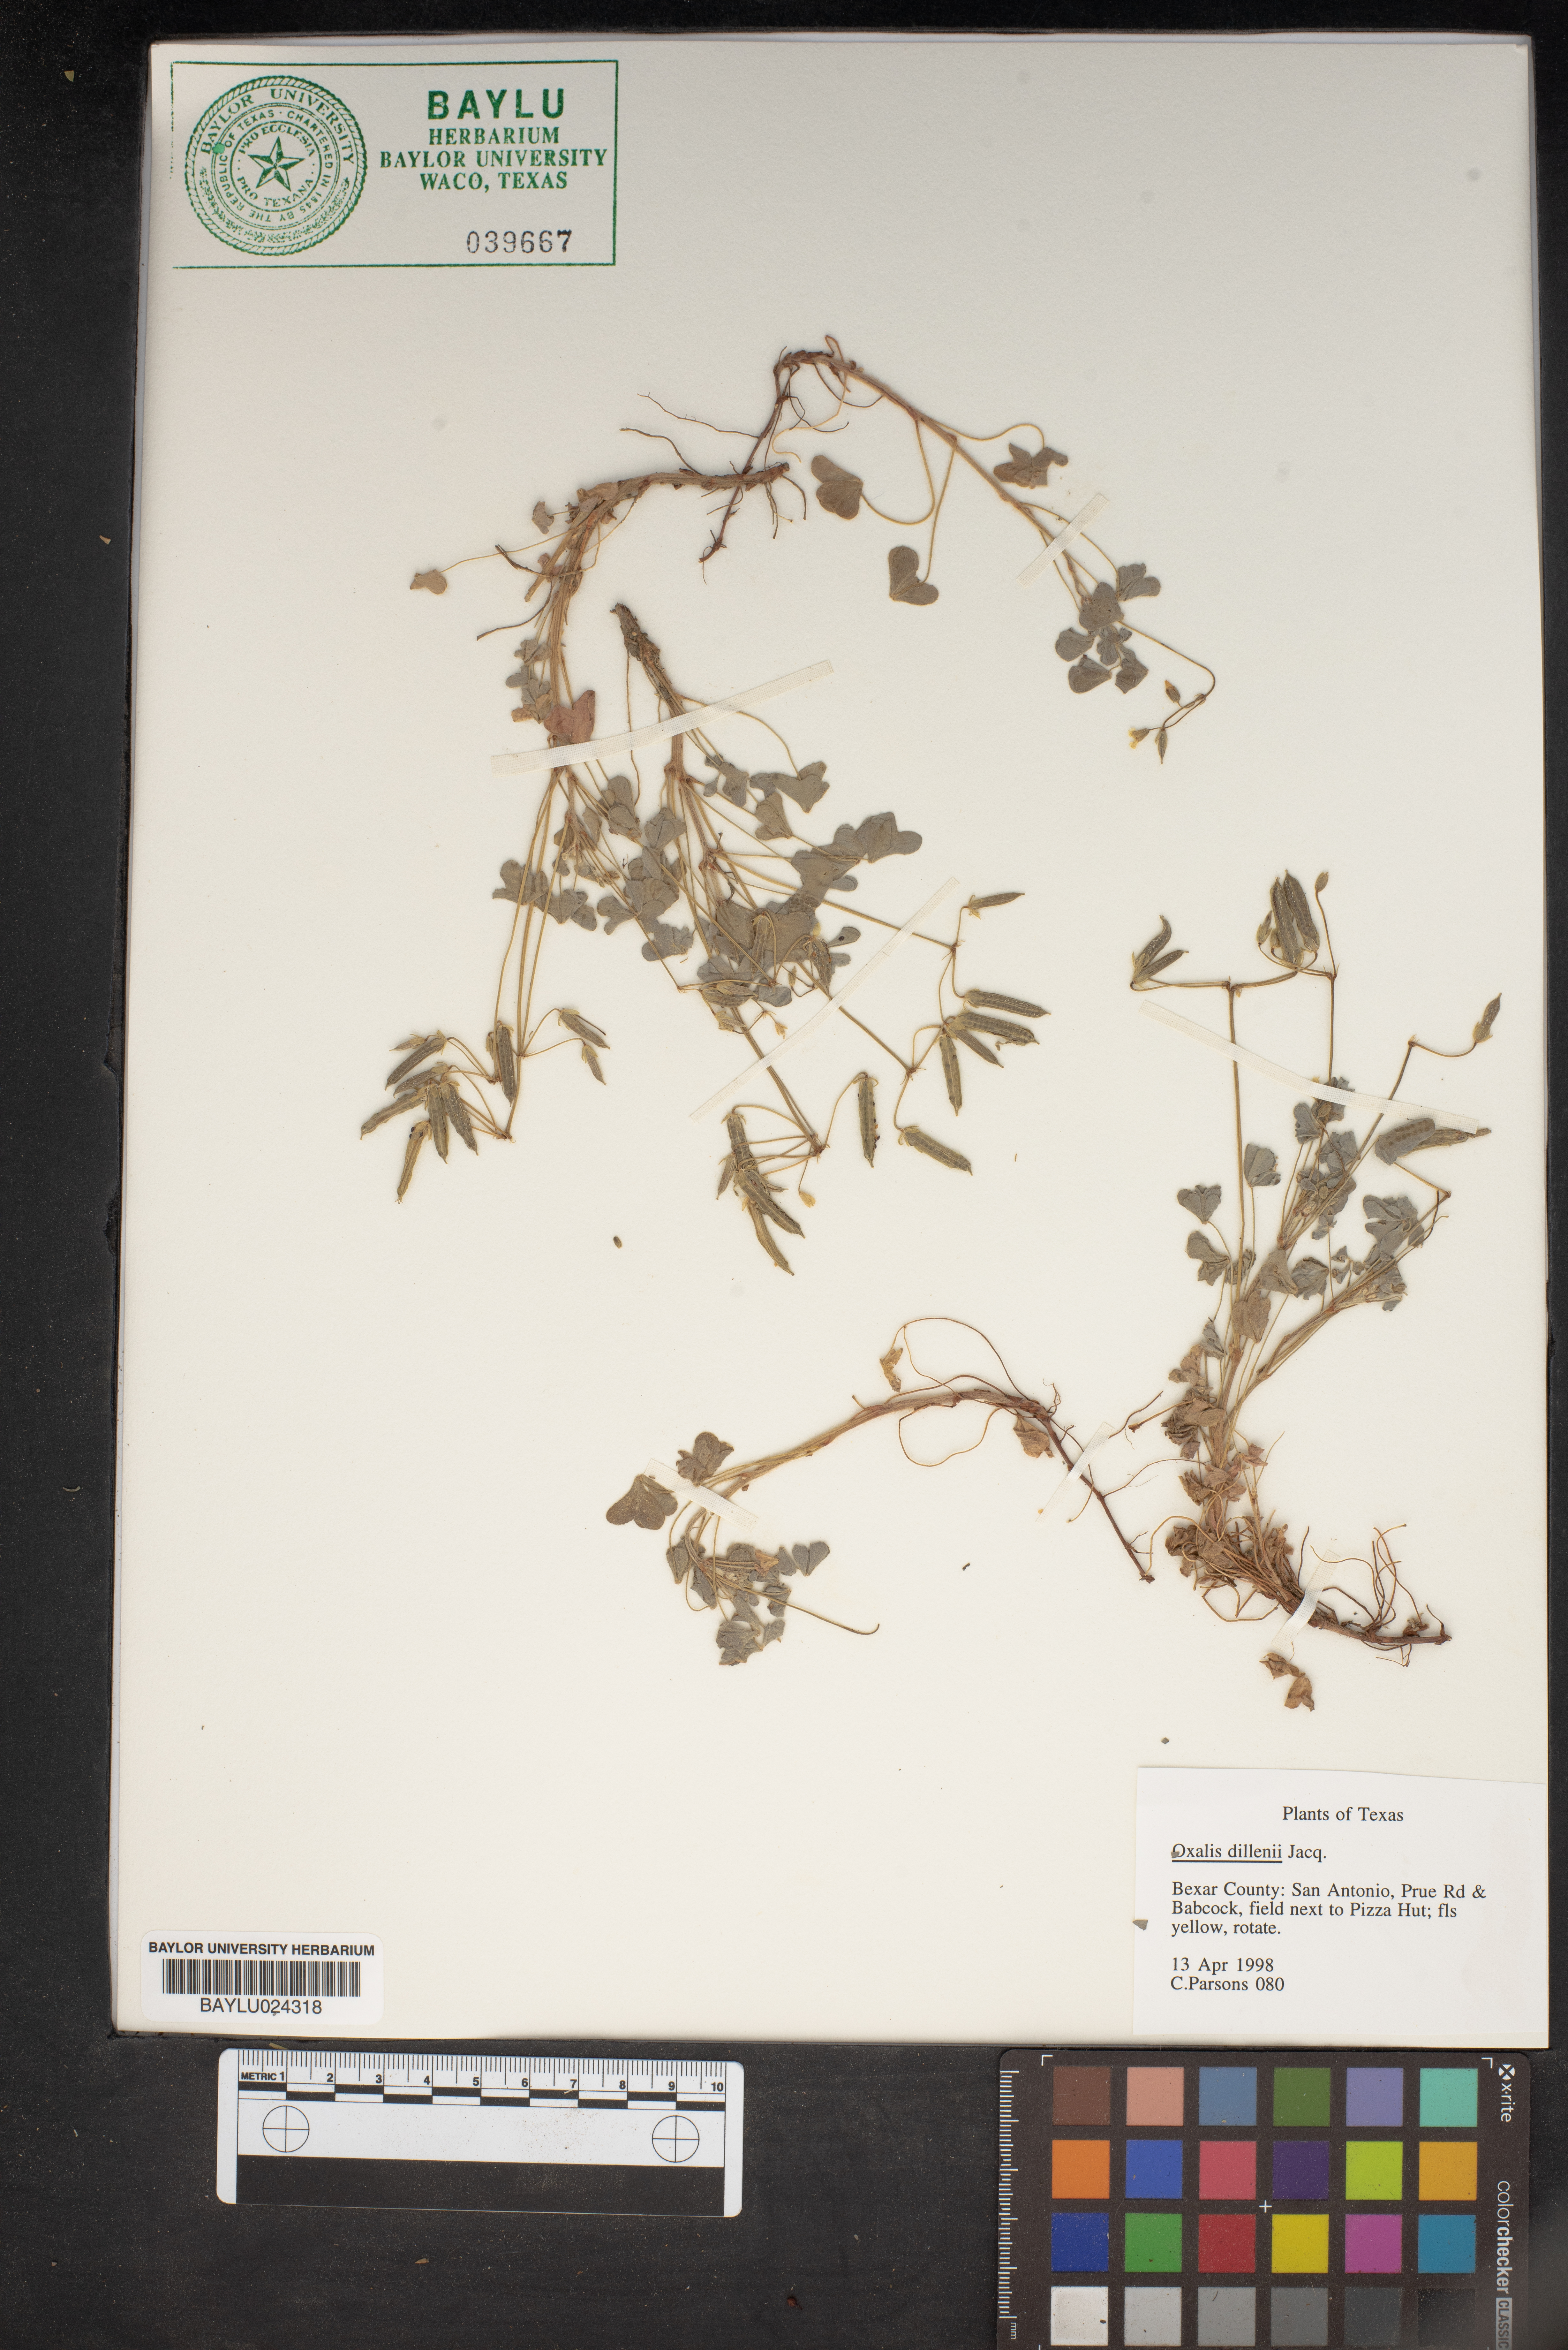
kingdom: Plantae
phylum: Tracheophyta
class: Magnoliopsida
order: Oxalidales
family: Oxalidaceae
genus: Oxalis
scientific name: Oxalis dillenii
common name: Sussex yellow-sorrel
